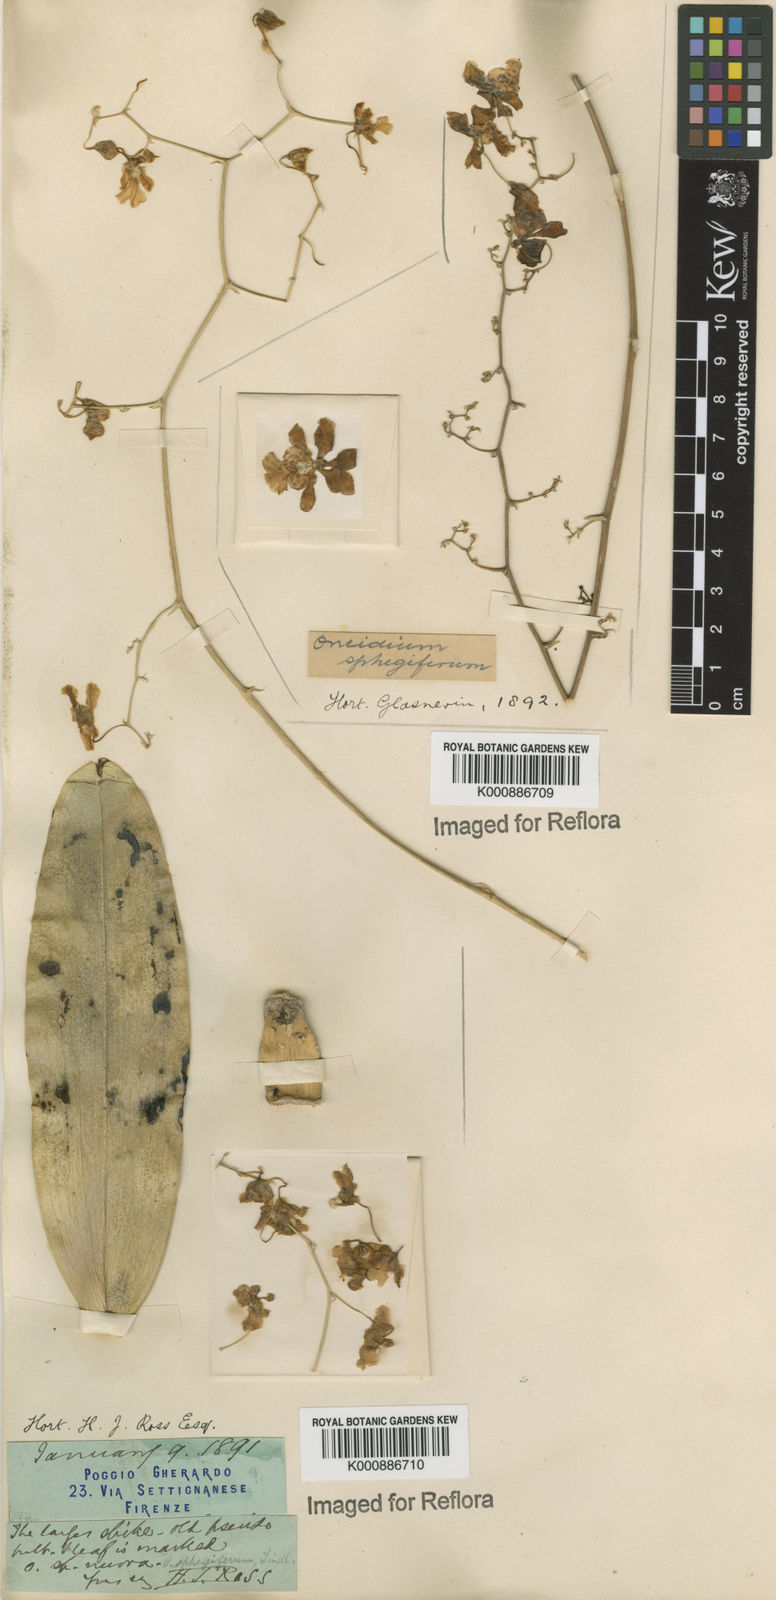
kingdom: Plantae
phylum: Tracheophyta
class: Liliopsida
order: Asparagales
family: Orchidaceae
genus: Grandiphyllum
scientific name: Grandiphyllum divaricatum
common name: Mule-ear orchid
